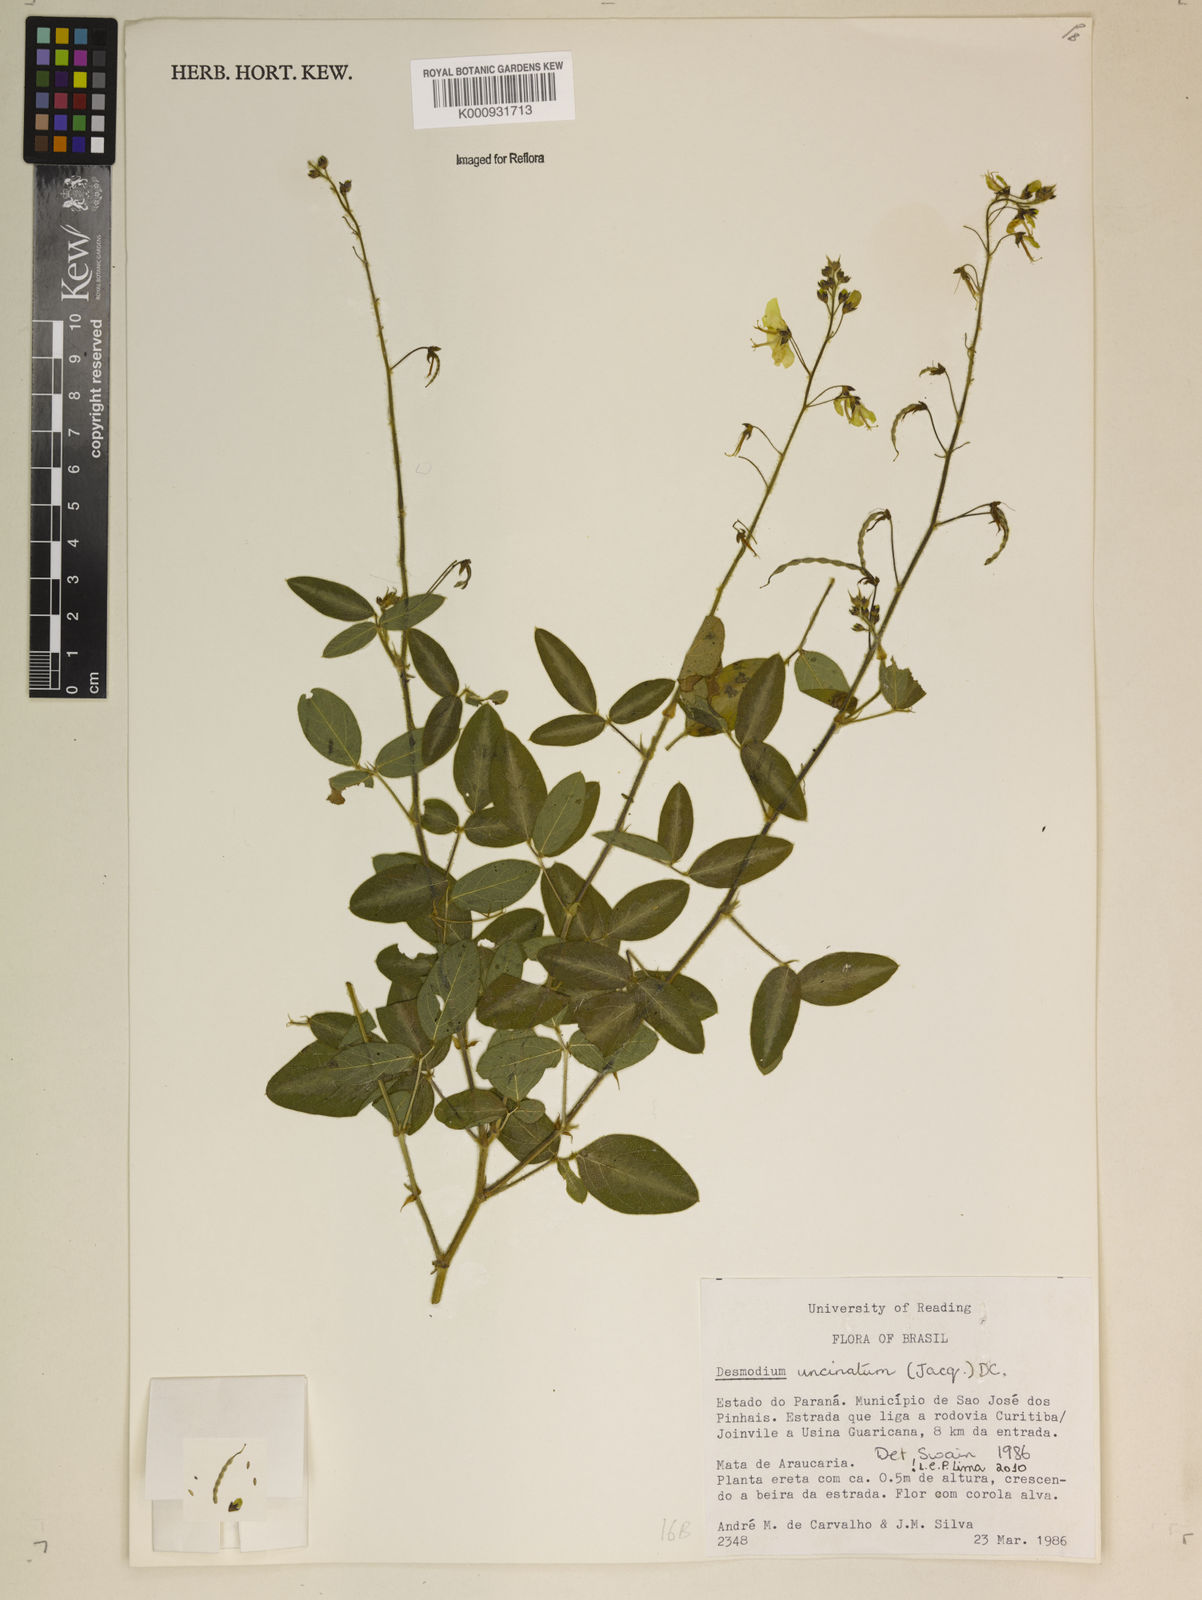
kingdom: Plantae
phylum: Tracheophyta
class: Magnoliopsida
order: Fabales
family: Fabaceae
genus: Desmodium
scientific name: Desmodium uncinatum
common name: Silverleaf desmodium
